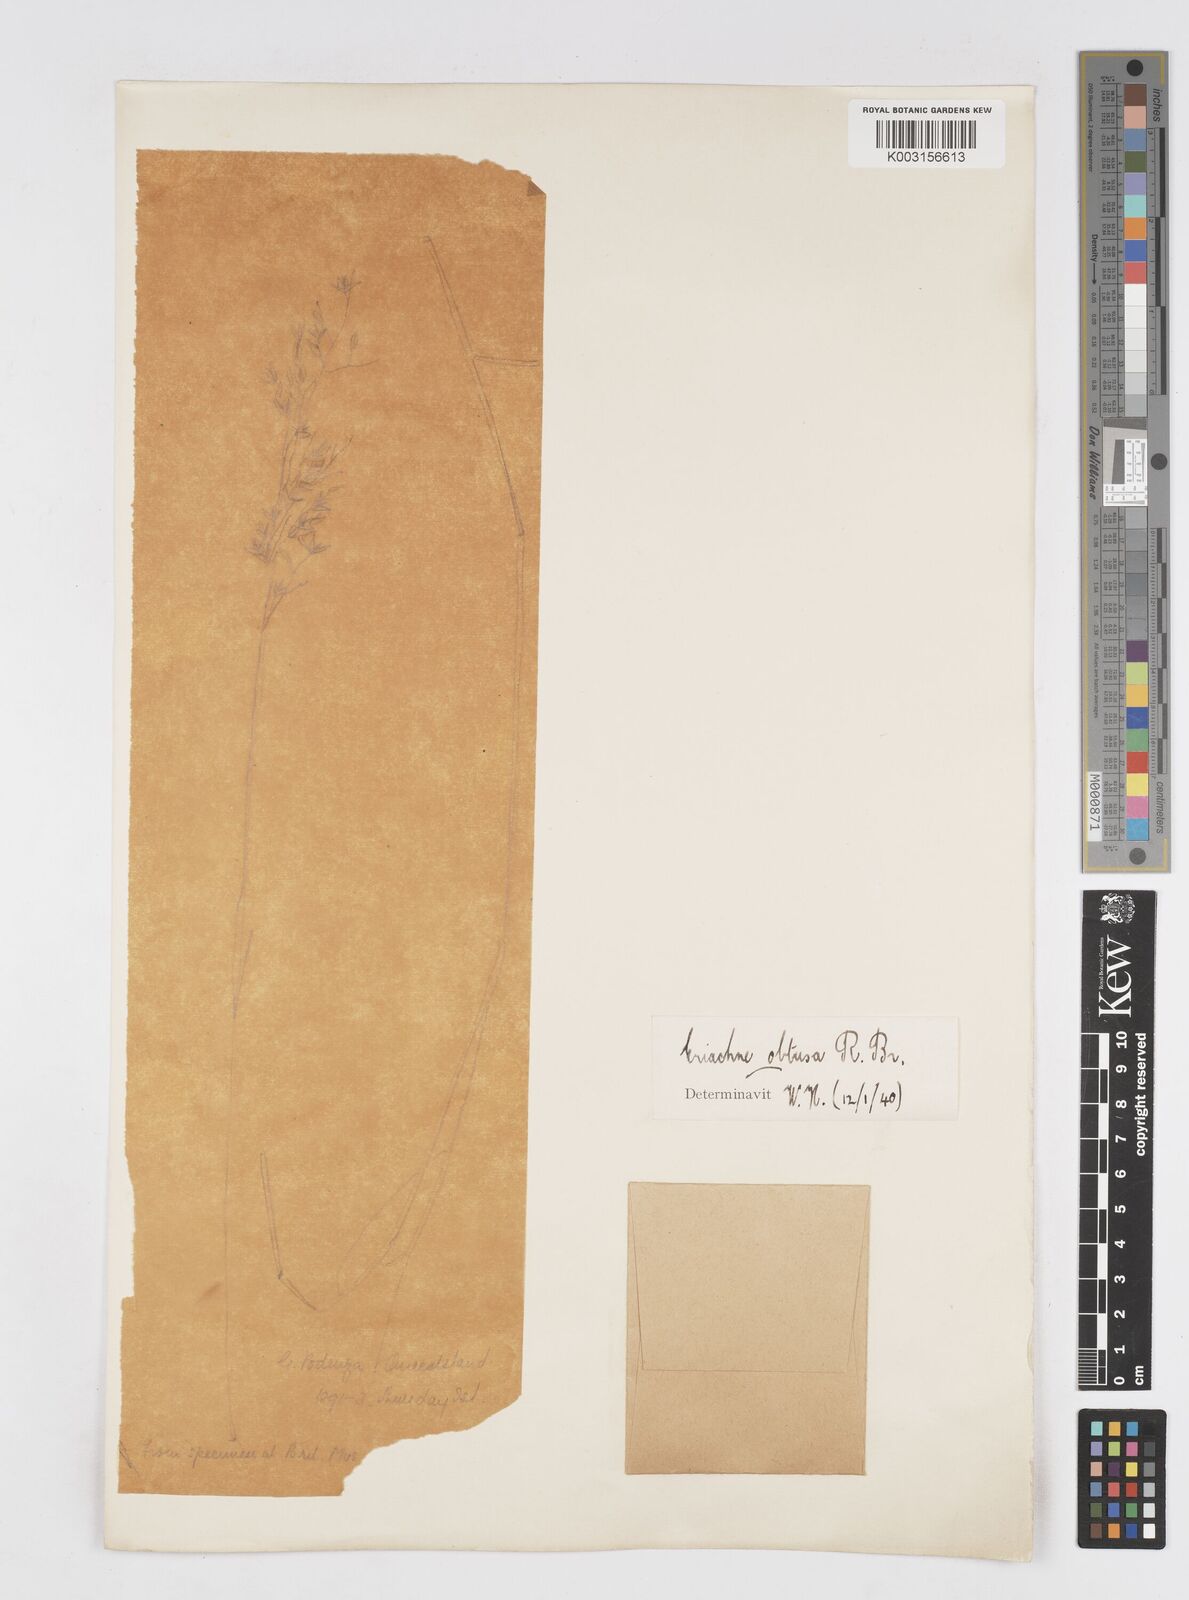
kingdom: Plantae
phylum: Tracheophyta
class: Liliopsida
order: Poales
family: Poaceae
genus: Eriachne
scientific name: Eriachne obtusa
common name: Northern wanderrie grass
